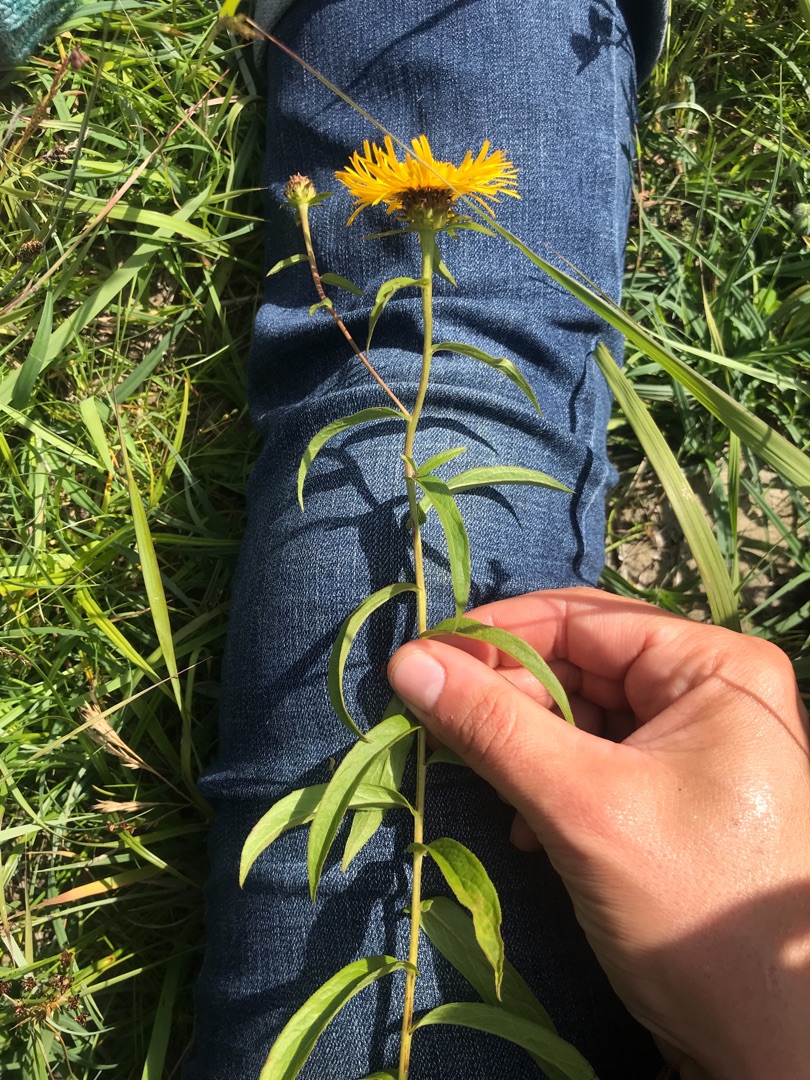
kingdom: Plantae
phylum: Tracheophyta
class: Magnoliopsida
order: Asterales
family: Asteraceae
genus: Pentanema
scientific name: Pentanema salicinum
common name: Pile-alant
